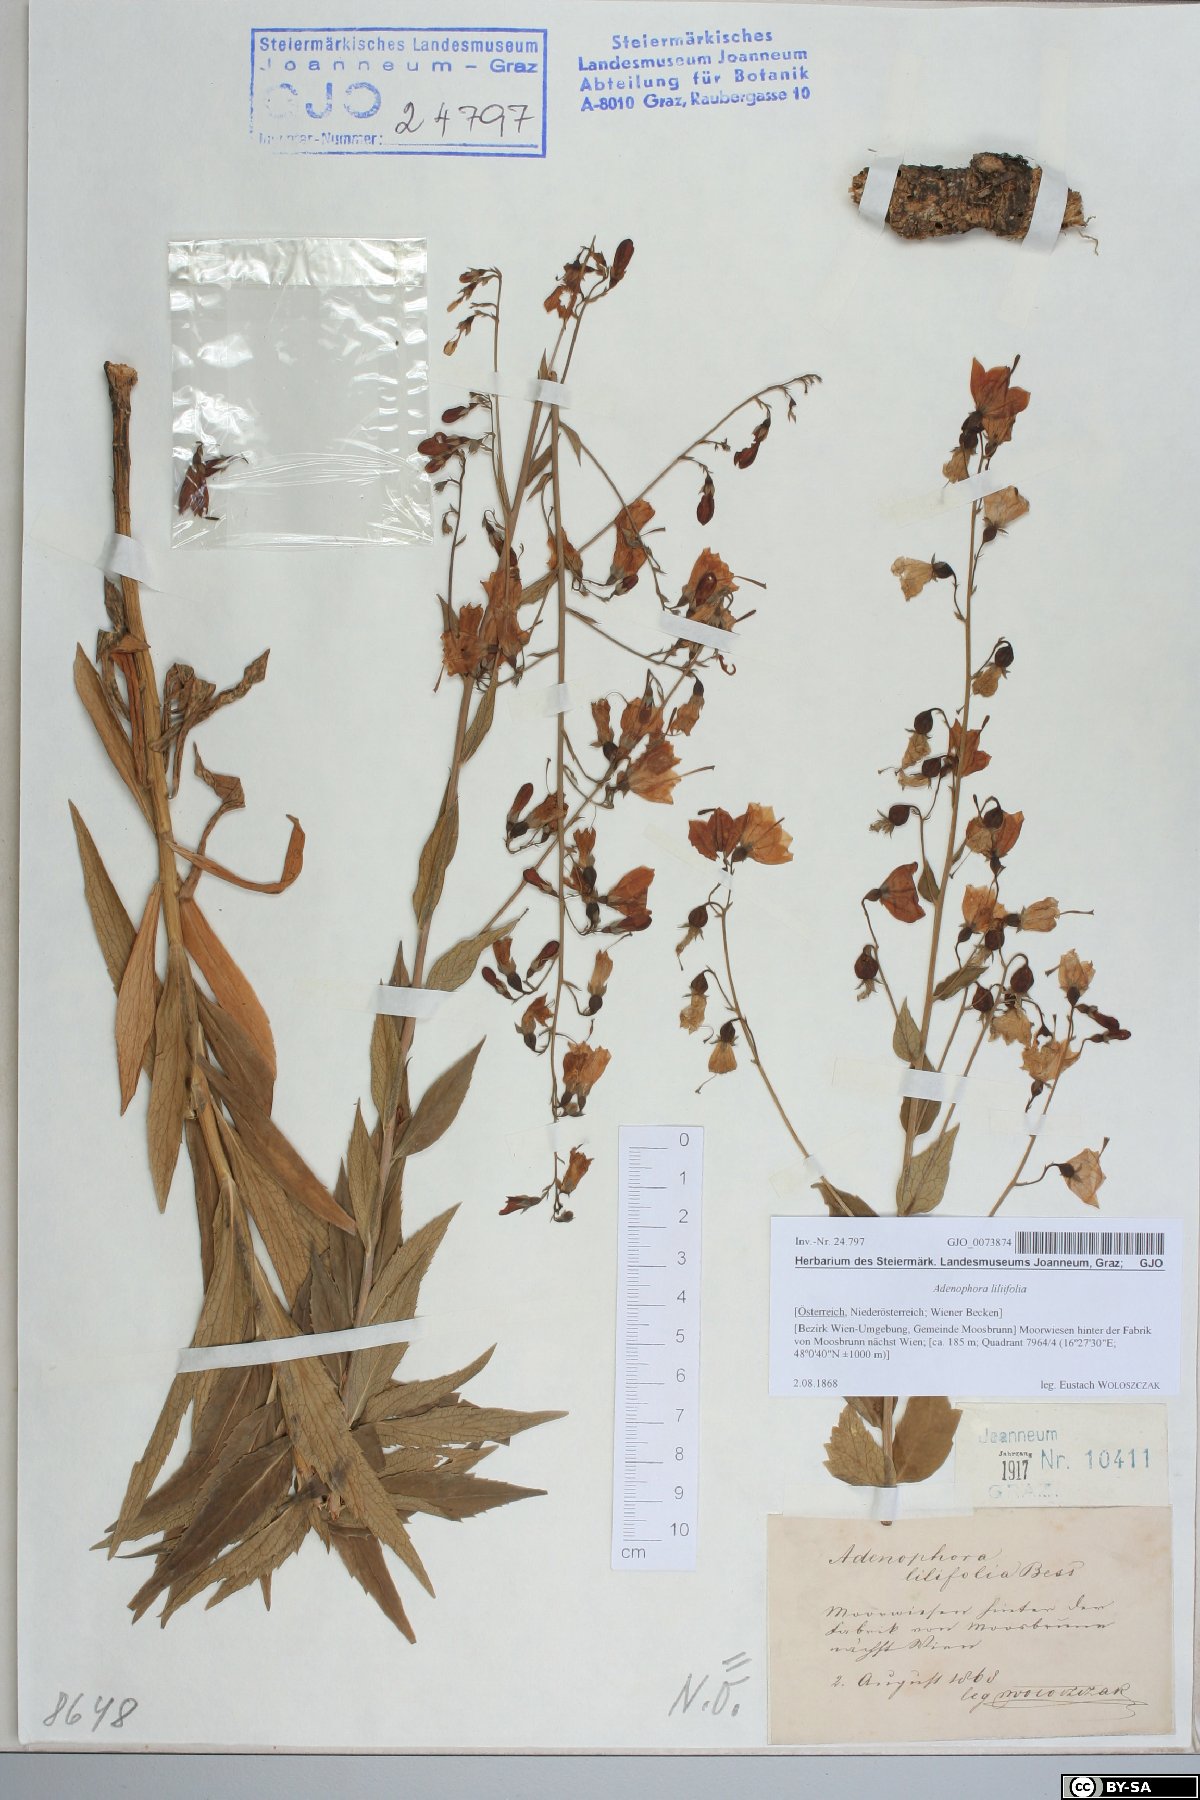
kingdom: Plantae
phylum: Tracheophyta
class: Magnoliopsida
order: Asterales
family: Campanulaceae
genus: Adenophora
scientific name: Adenophora liliifolia
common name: Lilyleaf ladybells
